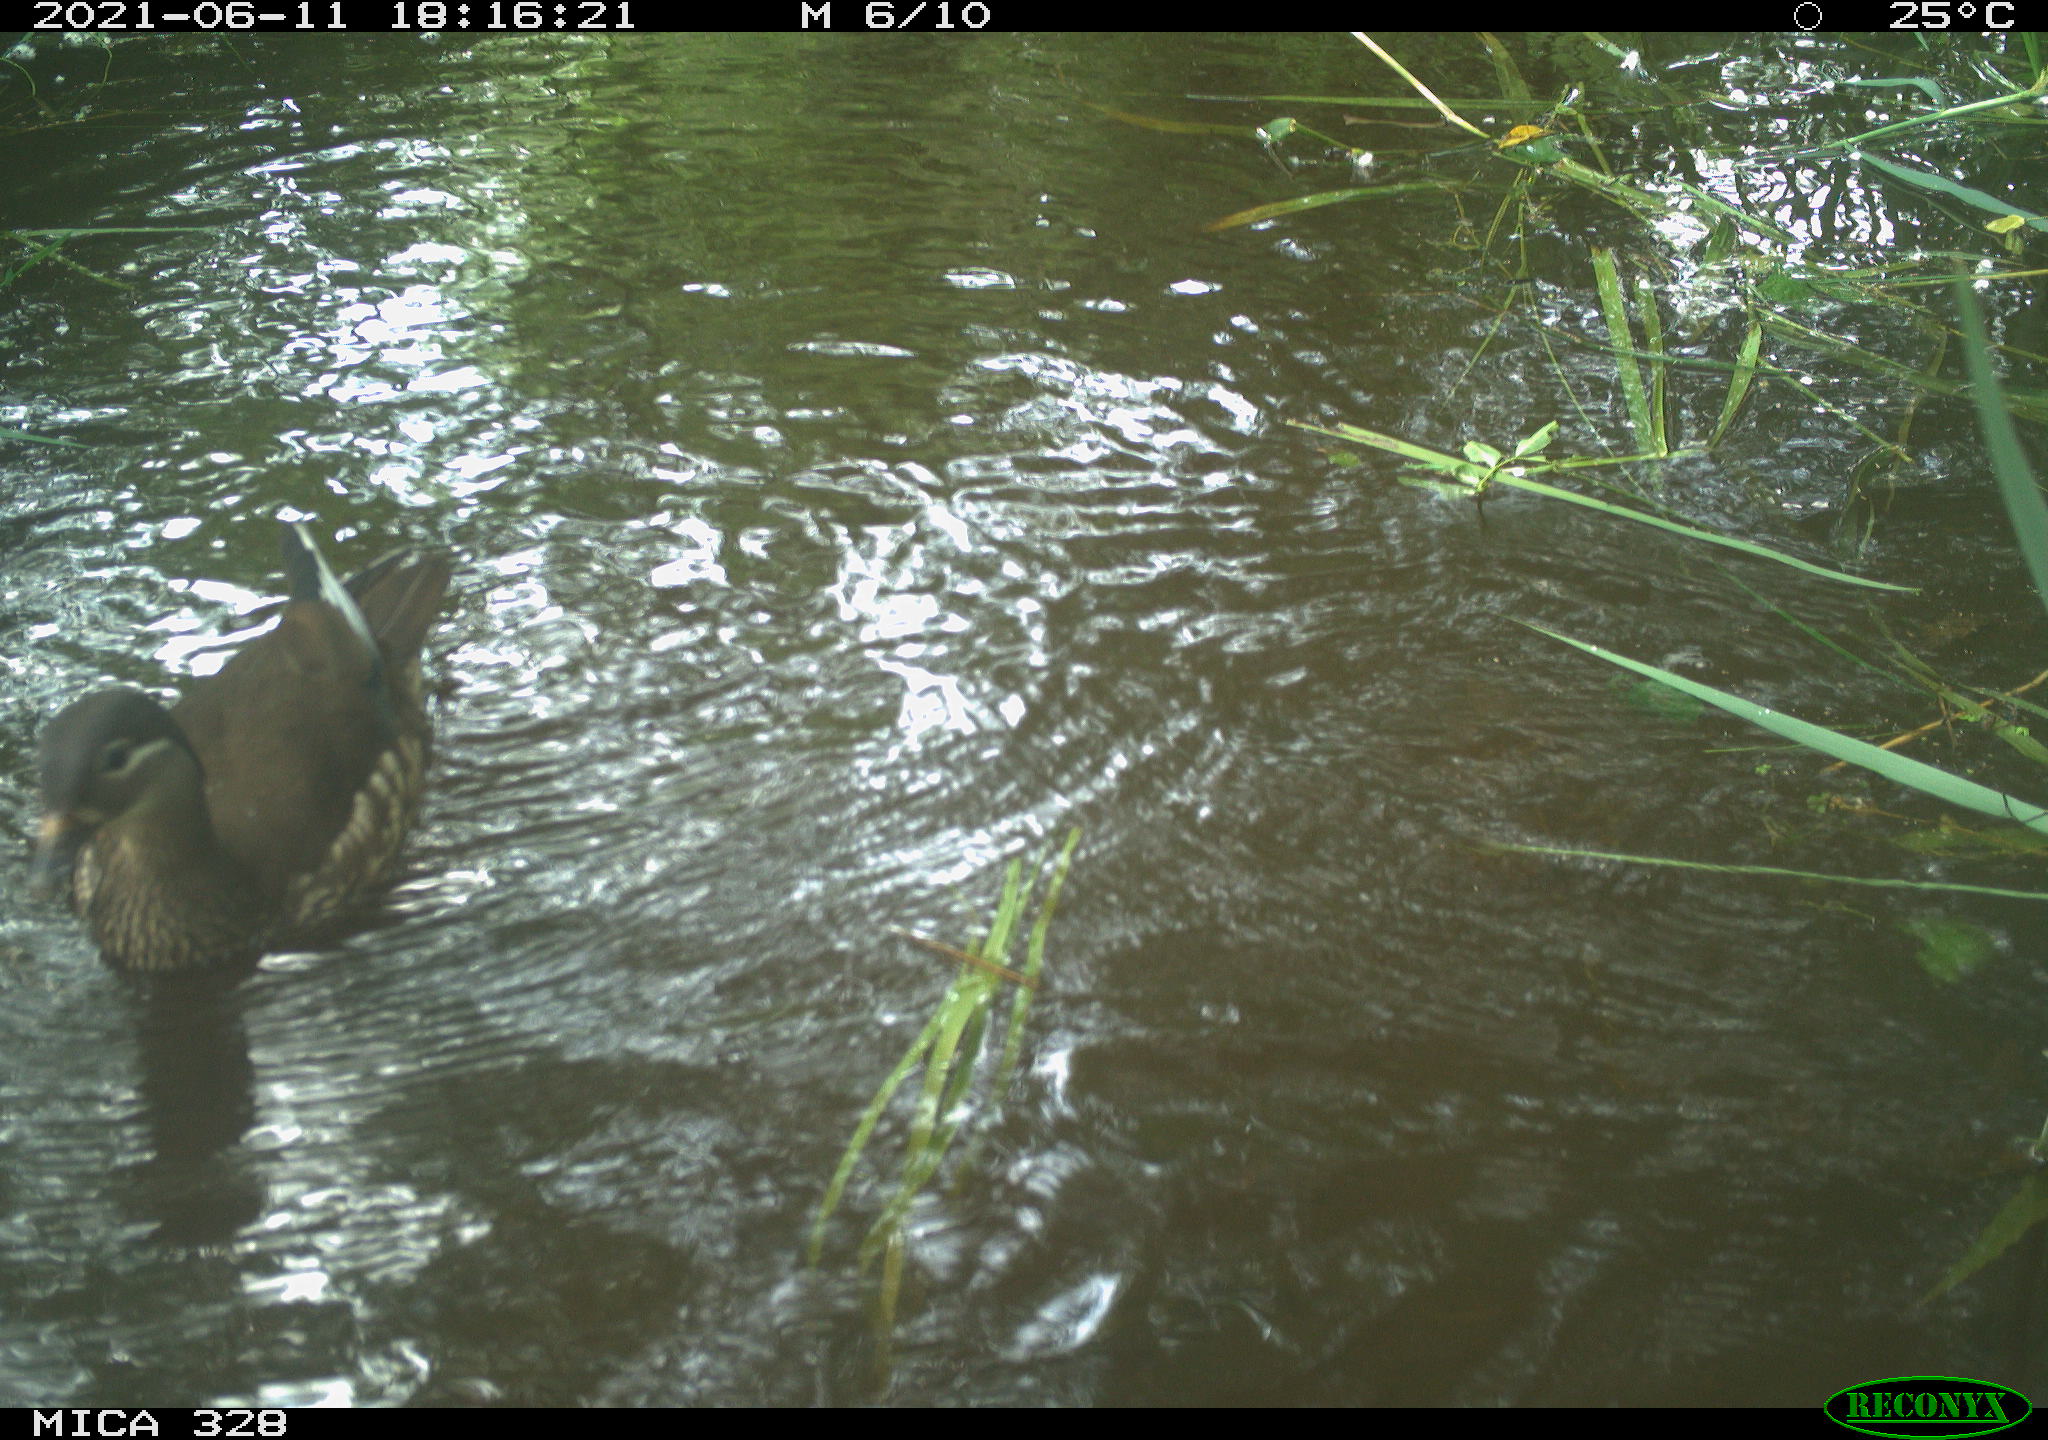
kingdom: Animalia
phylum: Chordata
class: Aves
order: Anseriformes
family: Anatidae
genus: Aix
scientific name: Aix galericulata
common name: Mandarin duck
